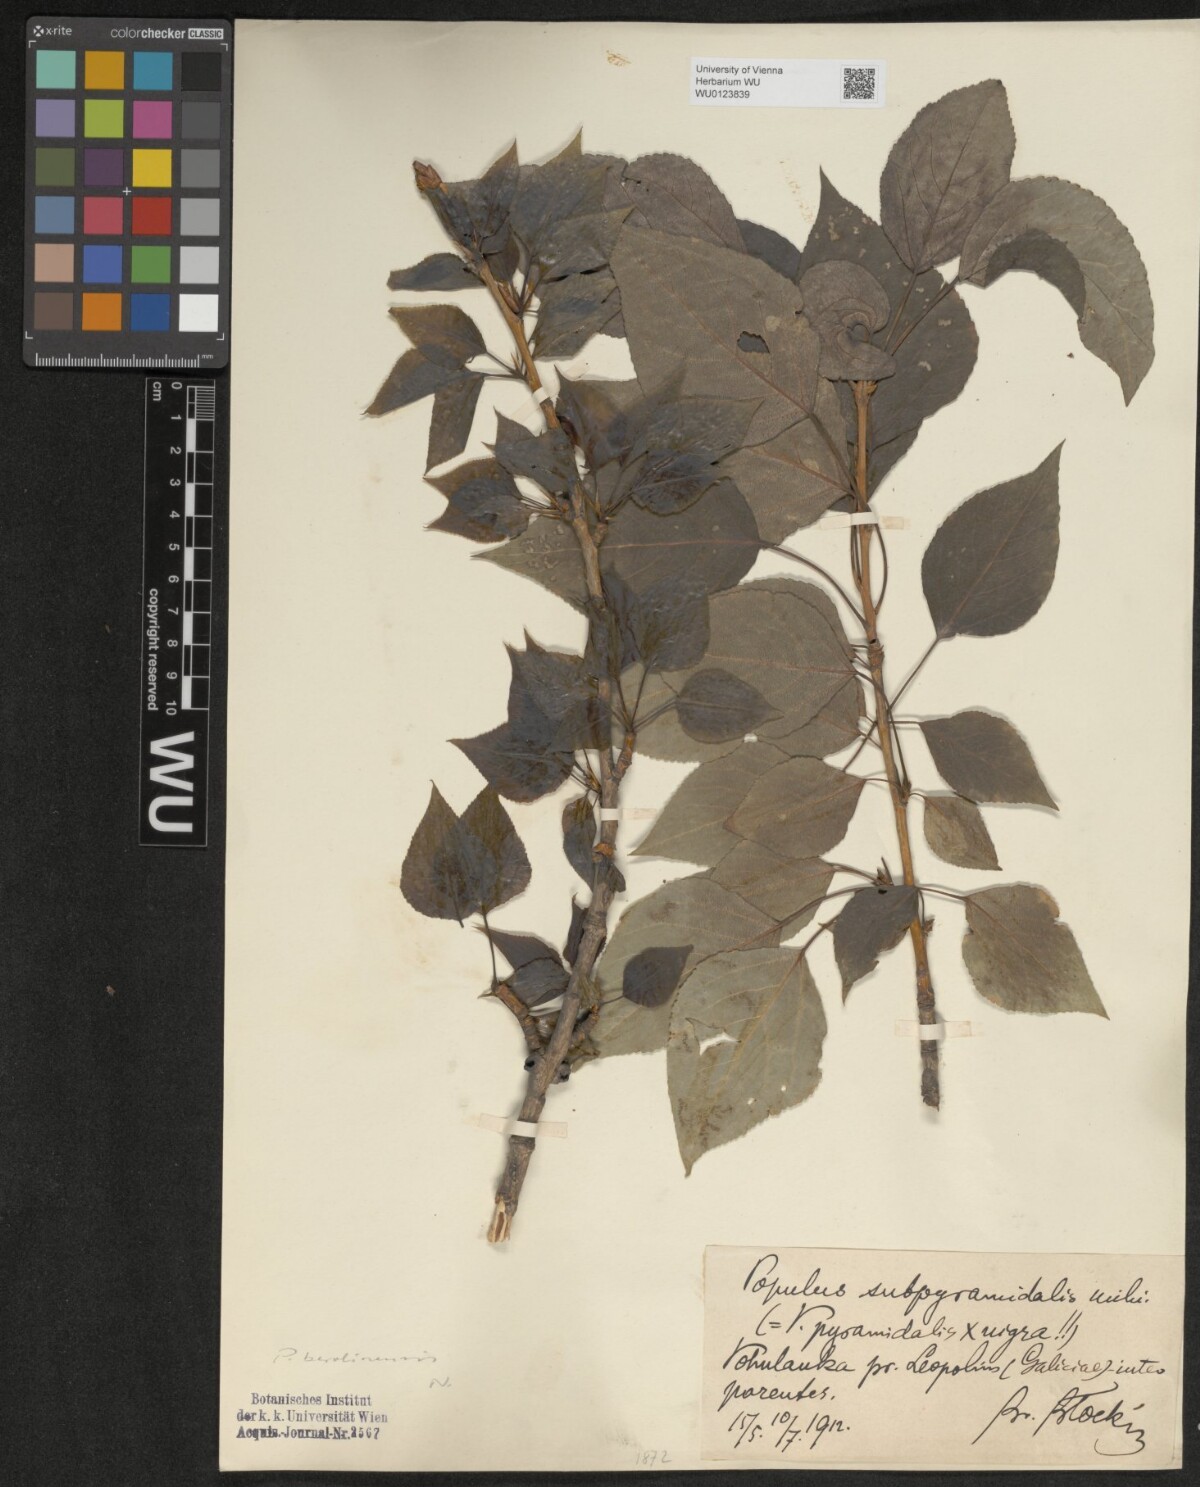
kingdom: Plantae
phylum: Tracheophyta
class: Magnoliopsida
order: Malpighiales
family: Salicaceae
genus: Populus
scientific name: Populus berolinensis
